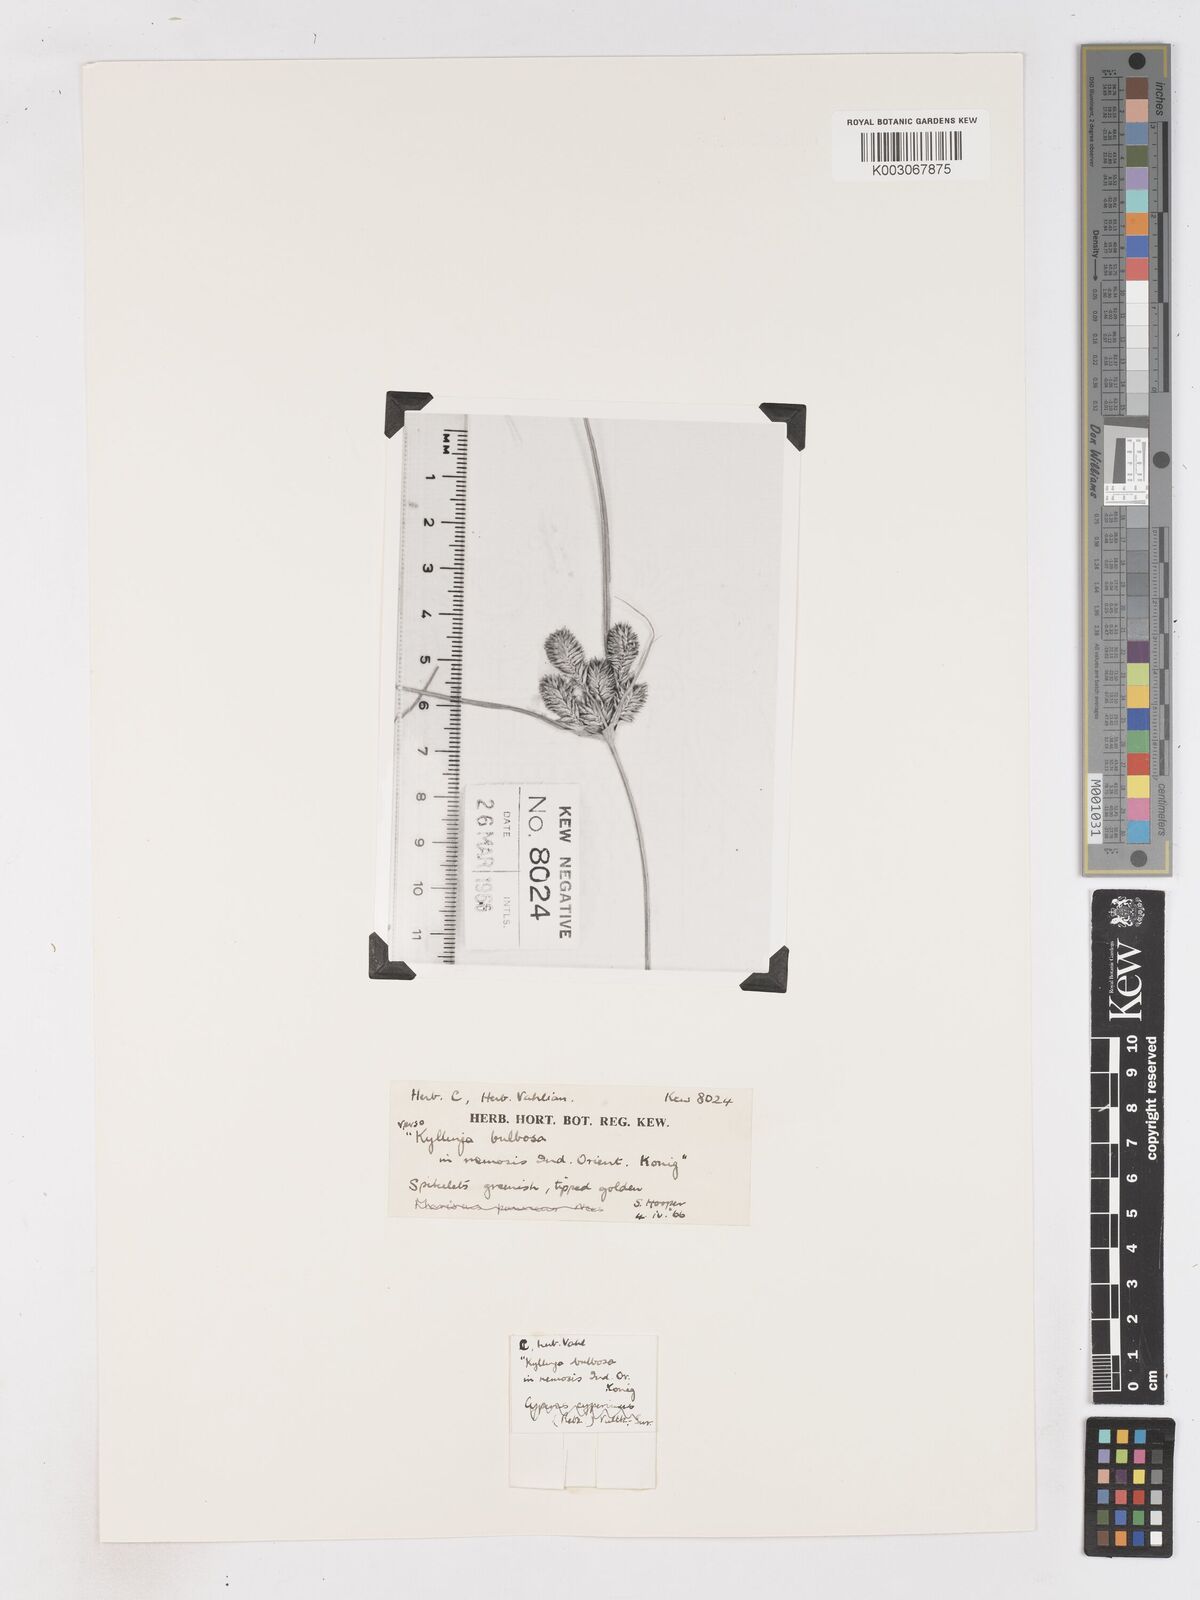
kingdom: Plantae
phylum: Tracheophyta
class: Liliopsida
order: Poales
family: Cyperaceae
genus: Cyperus
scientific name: Cyperus
